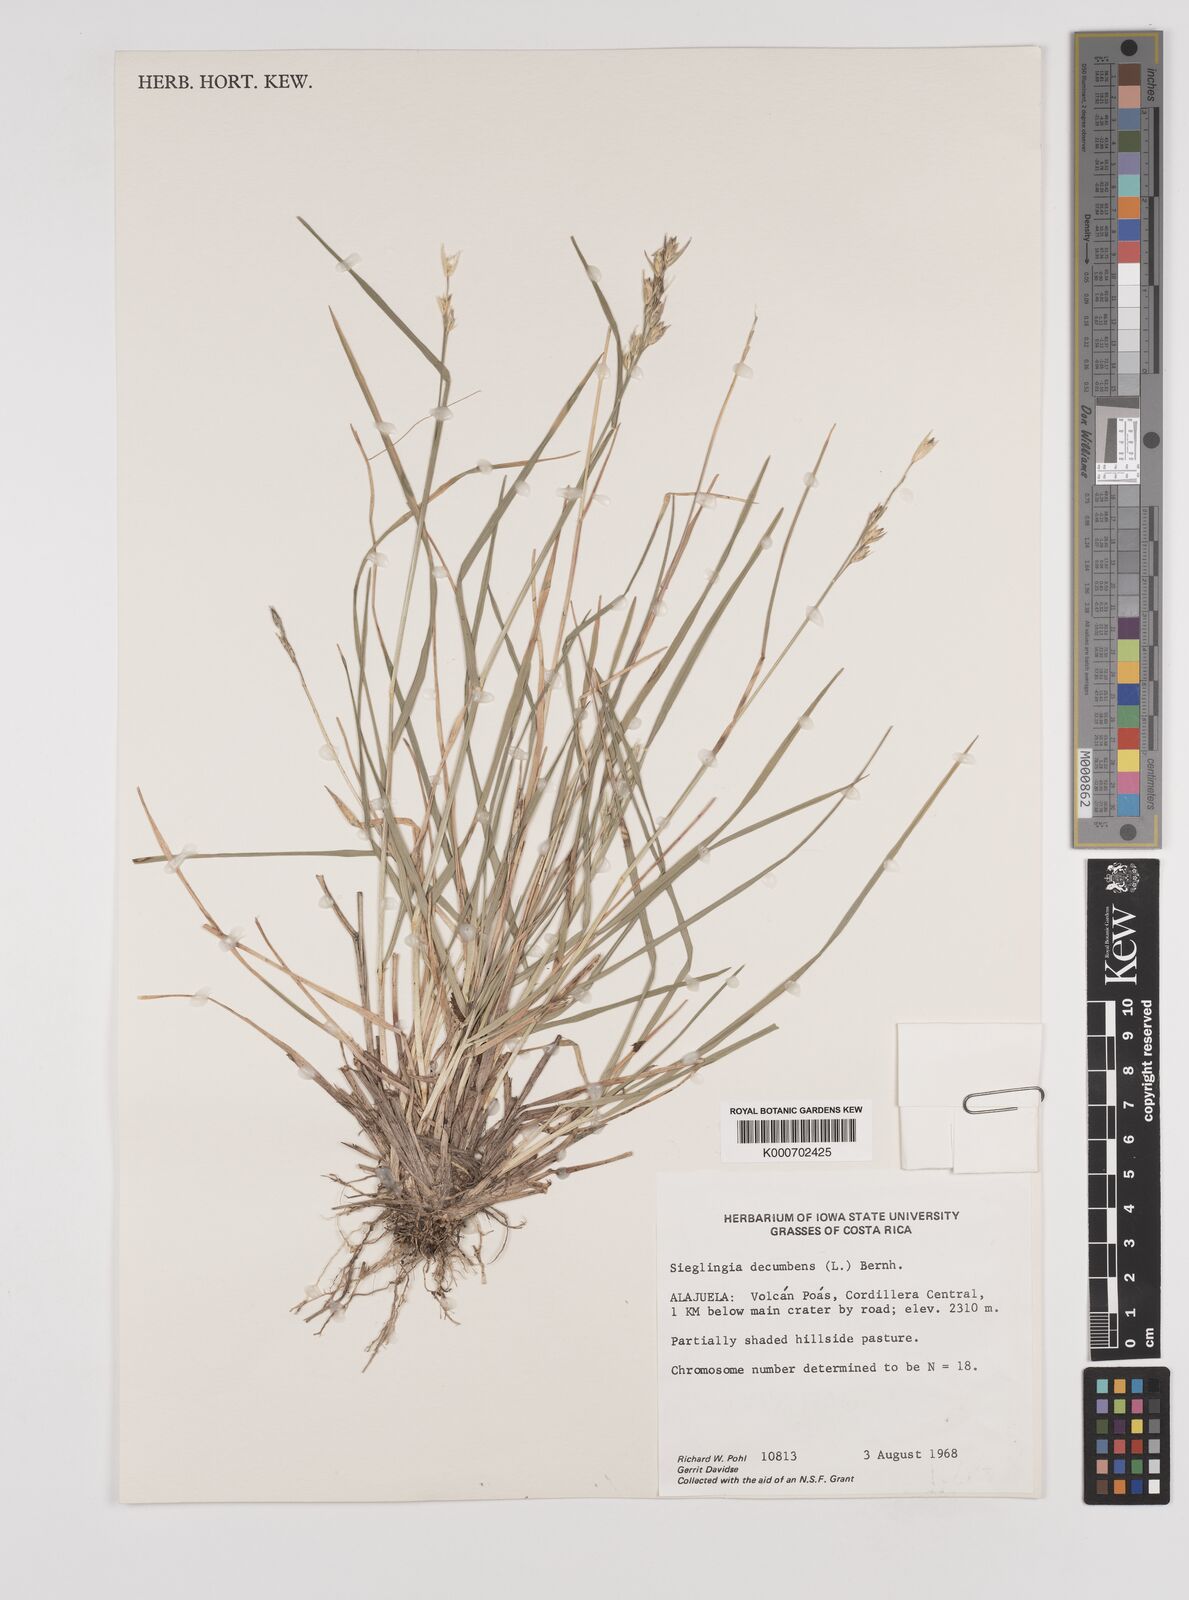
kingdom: Plantae
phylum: Tracheophyta
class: Liliopsida
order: Poales
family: Poaceae
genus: Danthonia
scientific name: Danthonia decumbens
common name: Common heathgrass
